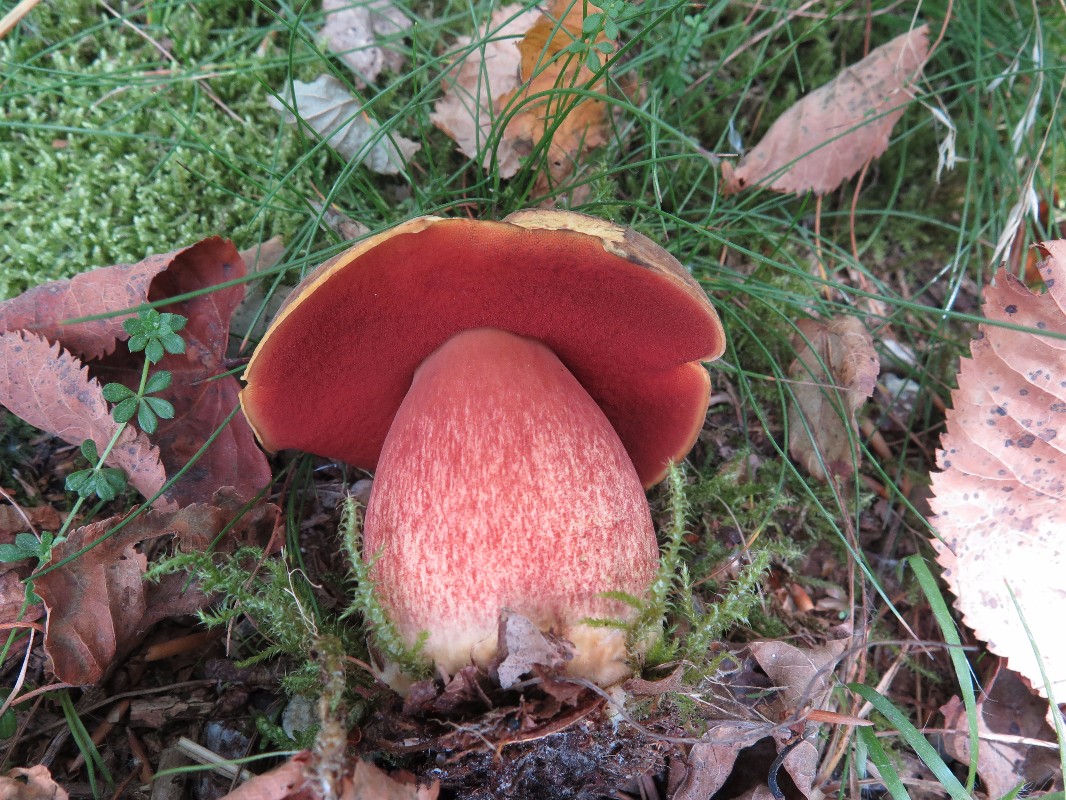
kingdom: Fungi
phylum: Basidiomycota
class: Agaricomycetes
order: Boletales
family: Boletaceae
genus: Neoboletus
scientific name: Neoboletus erythropus
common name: punktstokket indigorørhat
